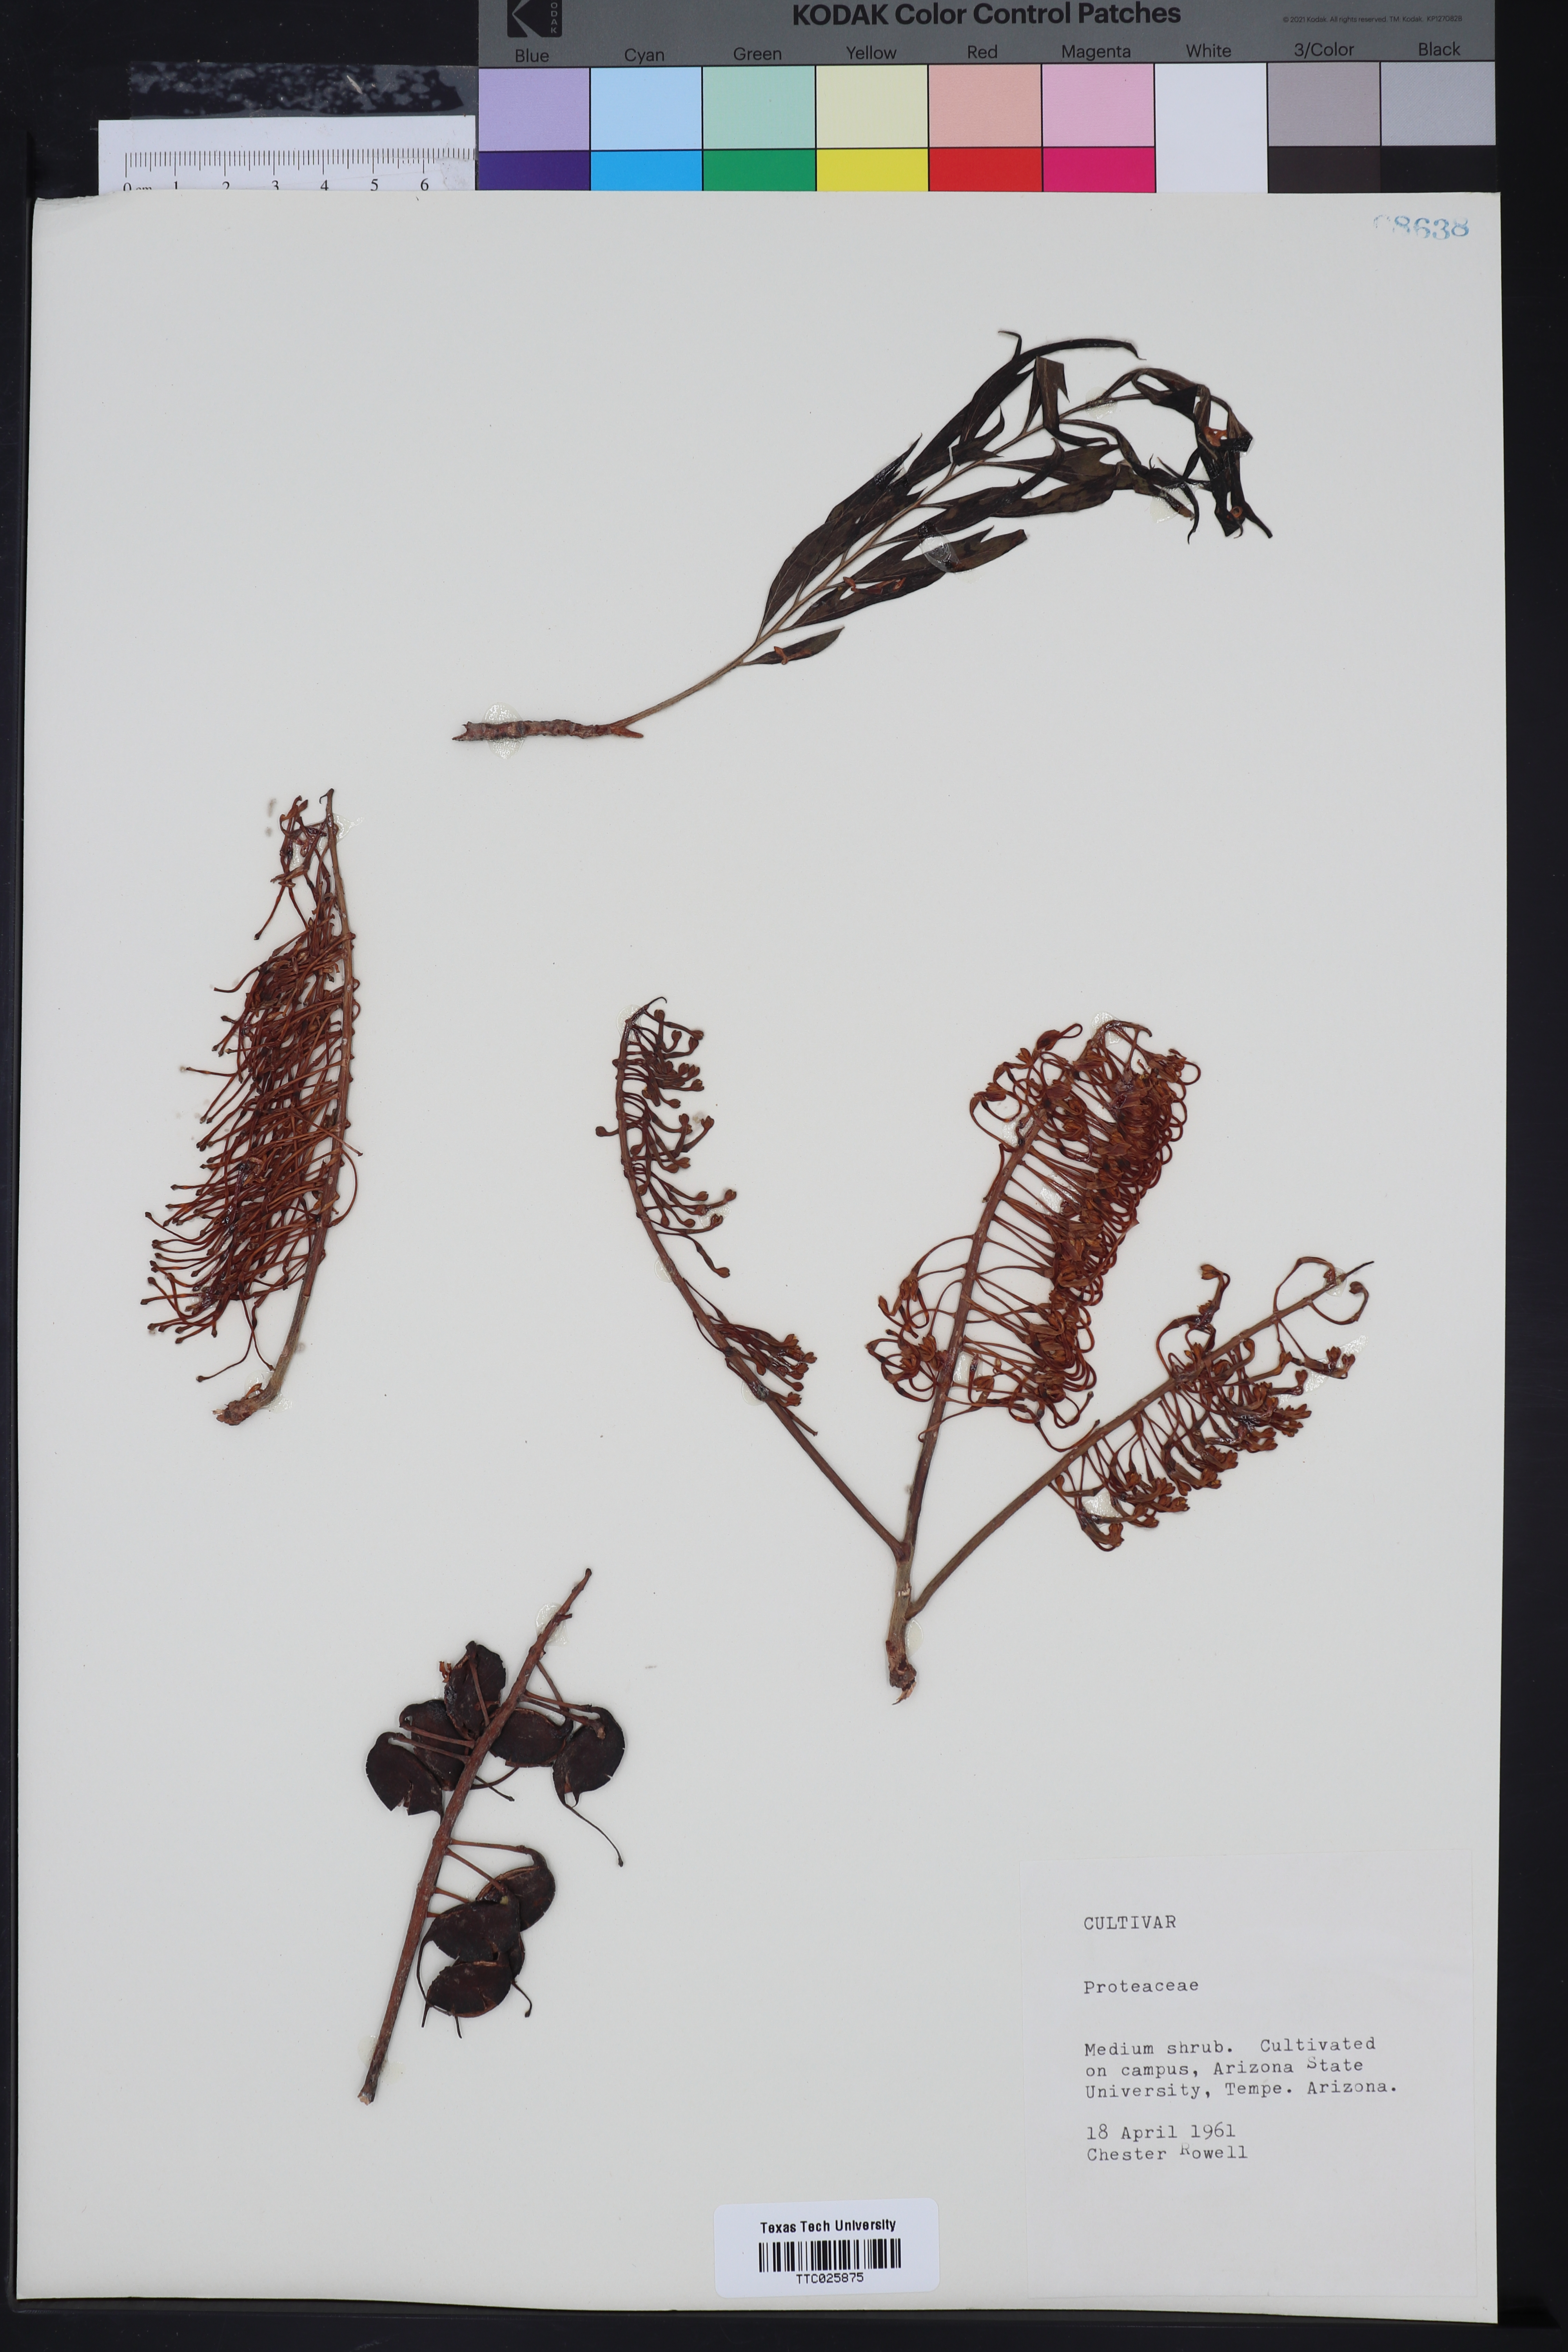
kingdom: Plantae
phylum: Tracheophyta
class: Liliopsida
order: Alismatales
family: Araceae
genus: Protarum
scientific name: Protarum
